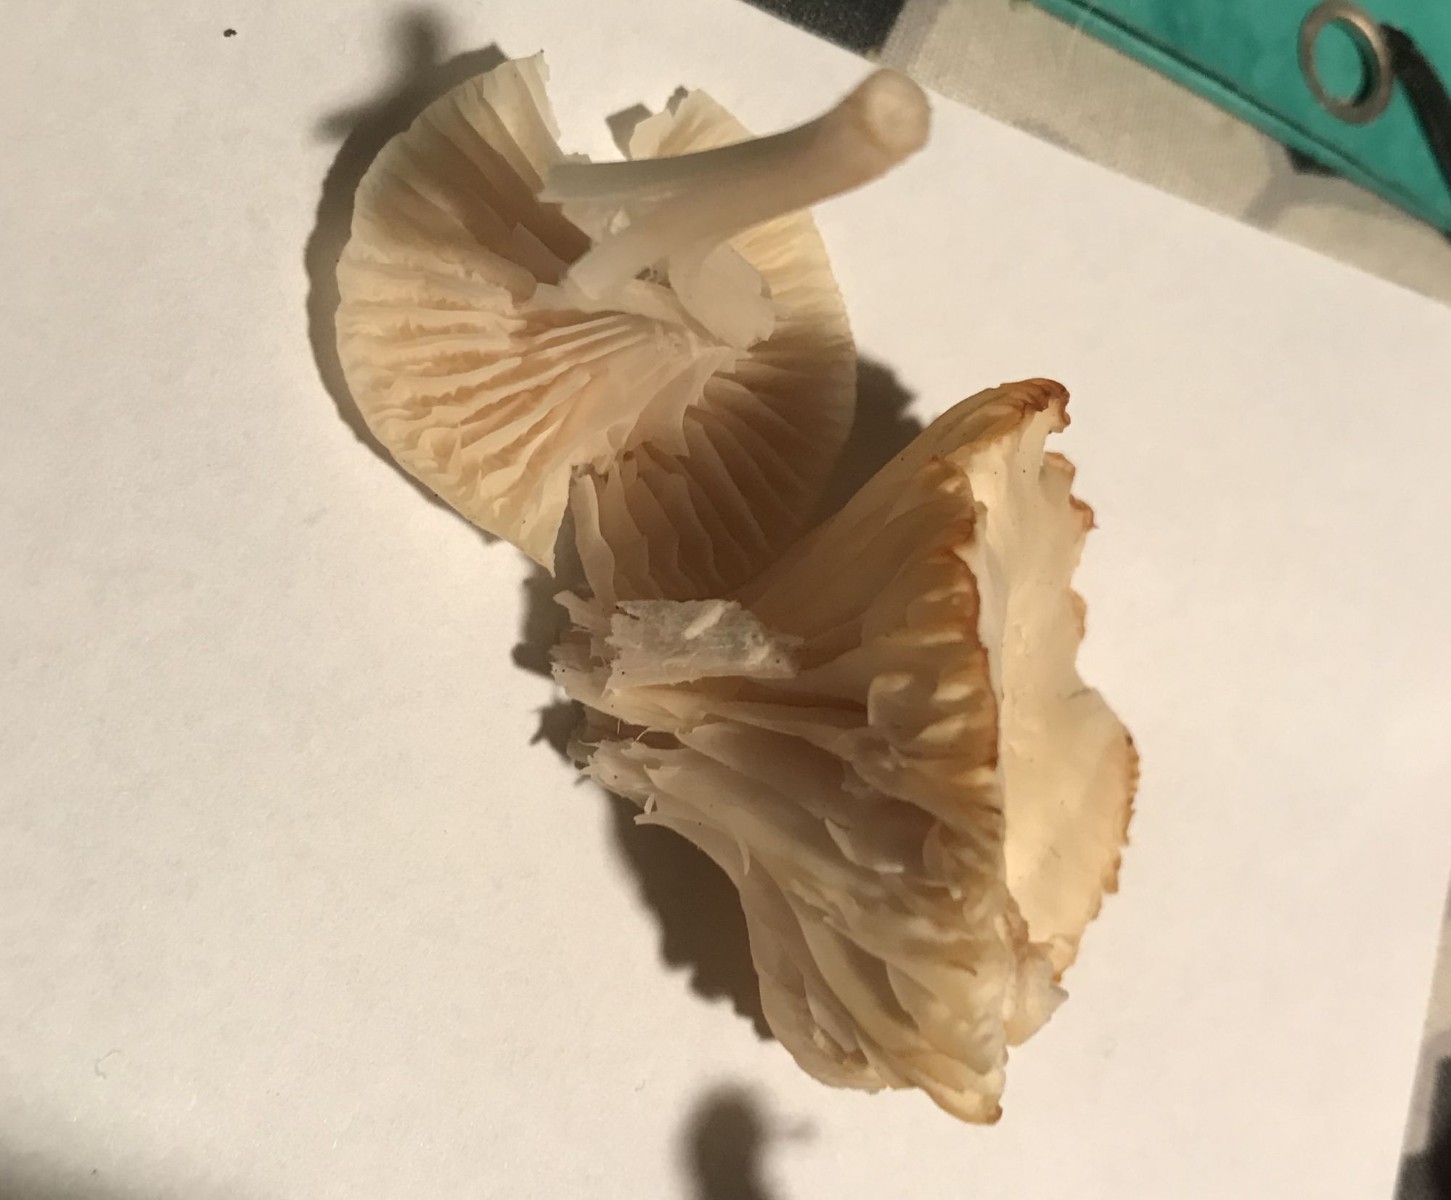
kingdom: Fungi
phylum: Basidiomycota
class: Agaricomycetes
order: Agaricales
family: Hygrophoraceae
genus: Cuphophyllus
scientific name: Cuphophyllus
